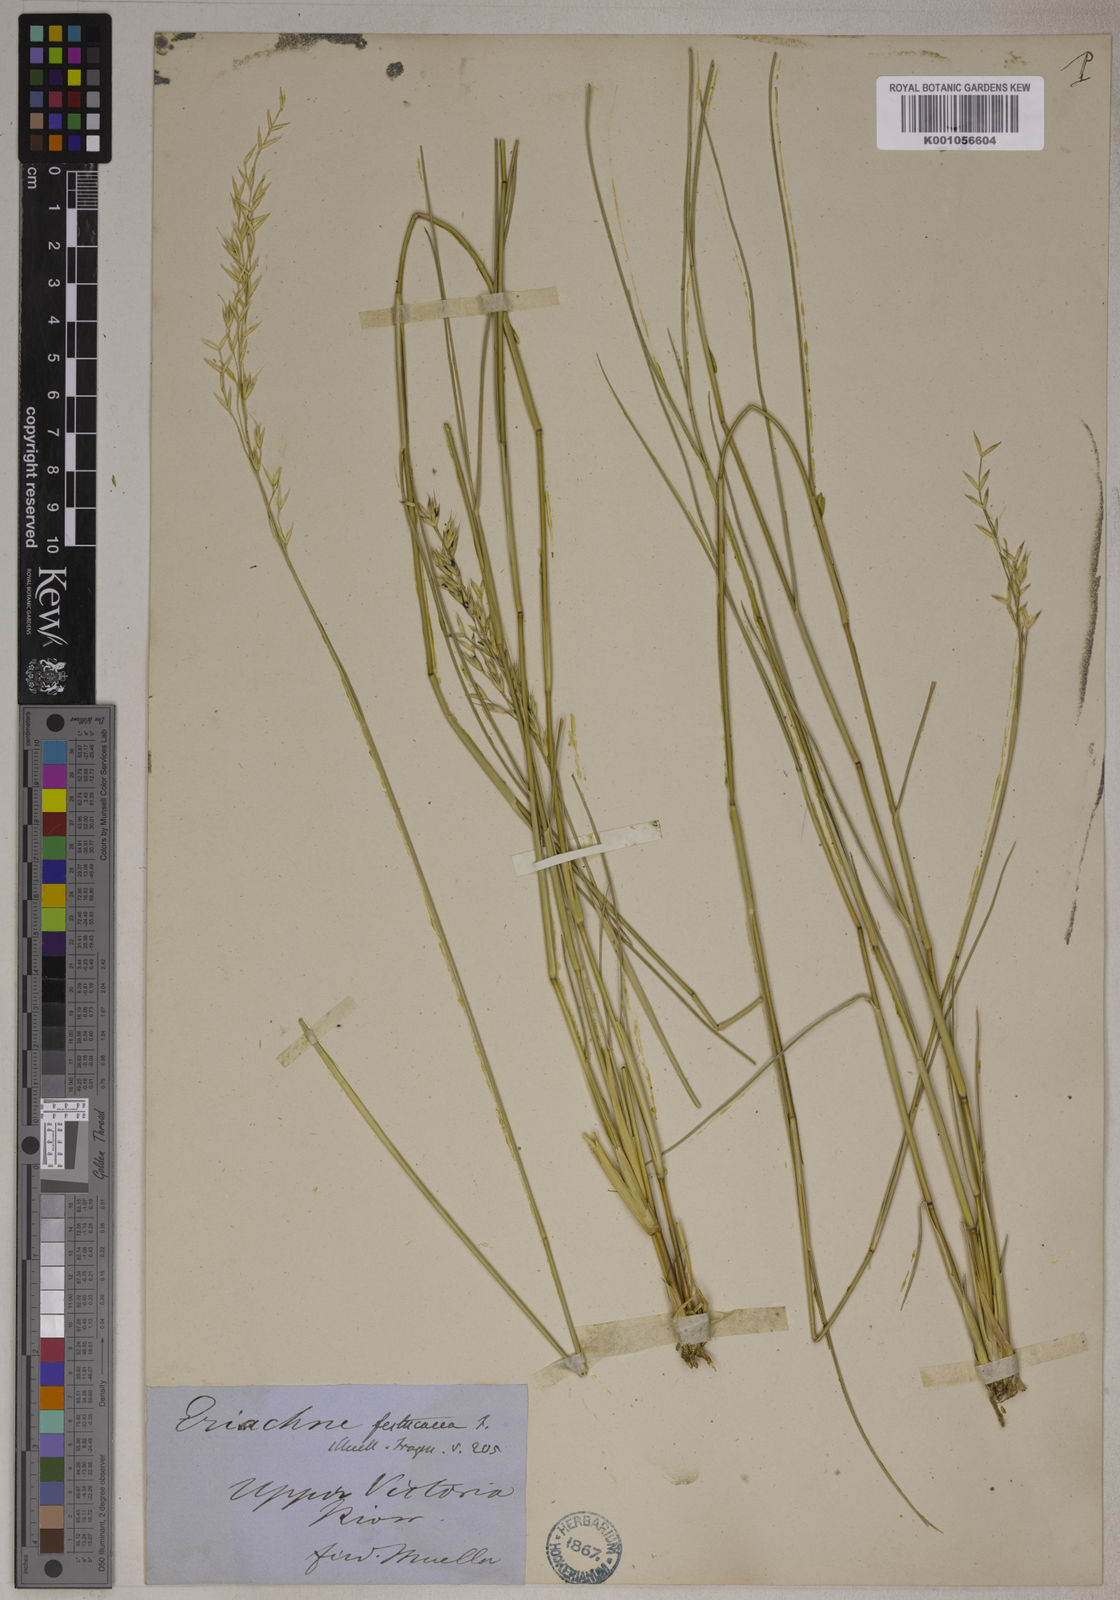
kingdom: Plantae
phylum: Tracheophyta
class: Liliopsida
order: Poales
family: Poaceae
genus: Eriachne
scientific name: Eriachne festucacea
